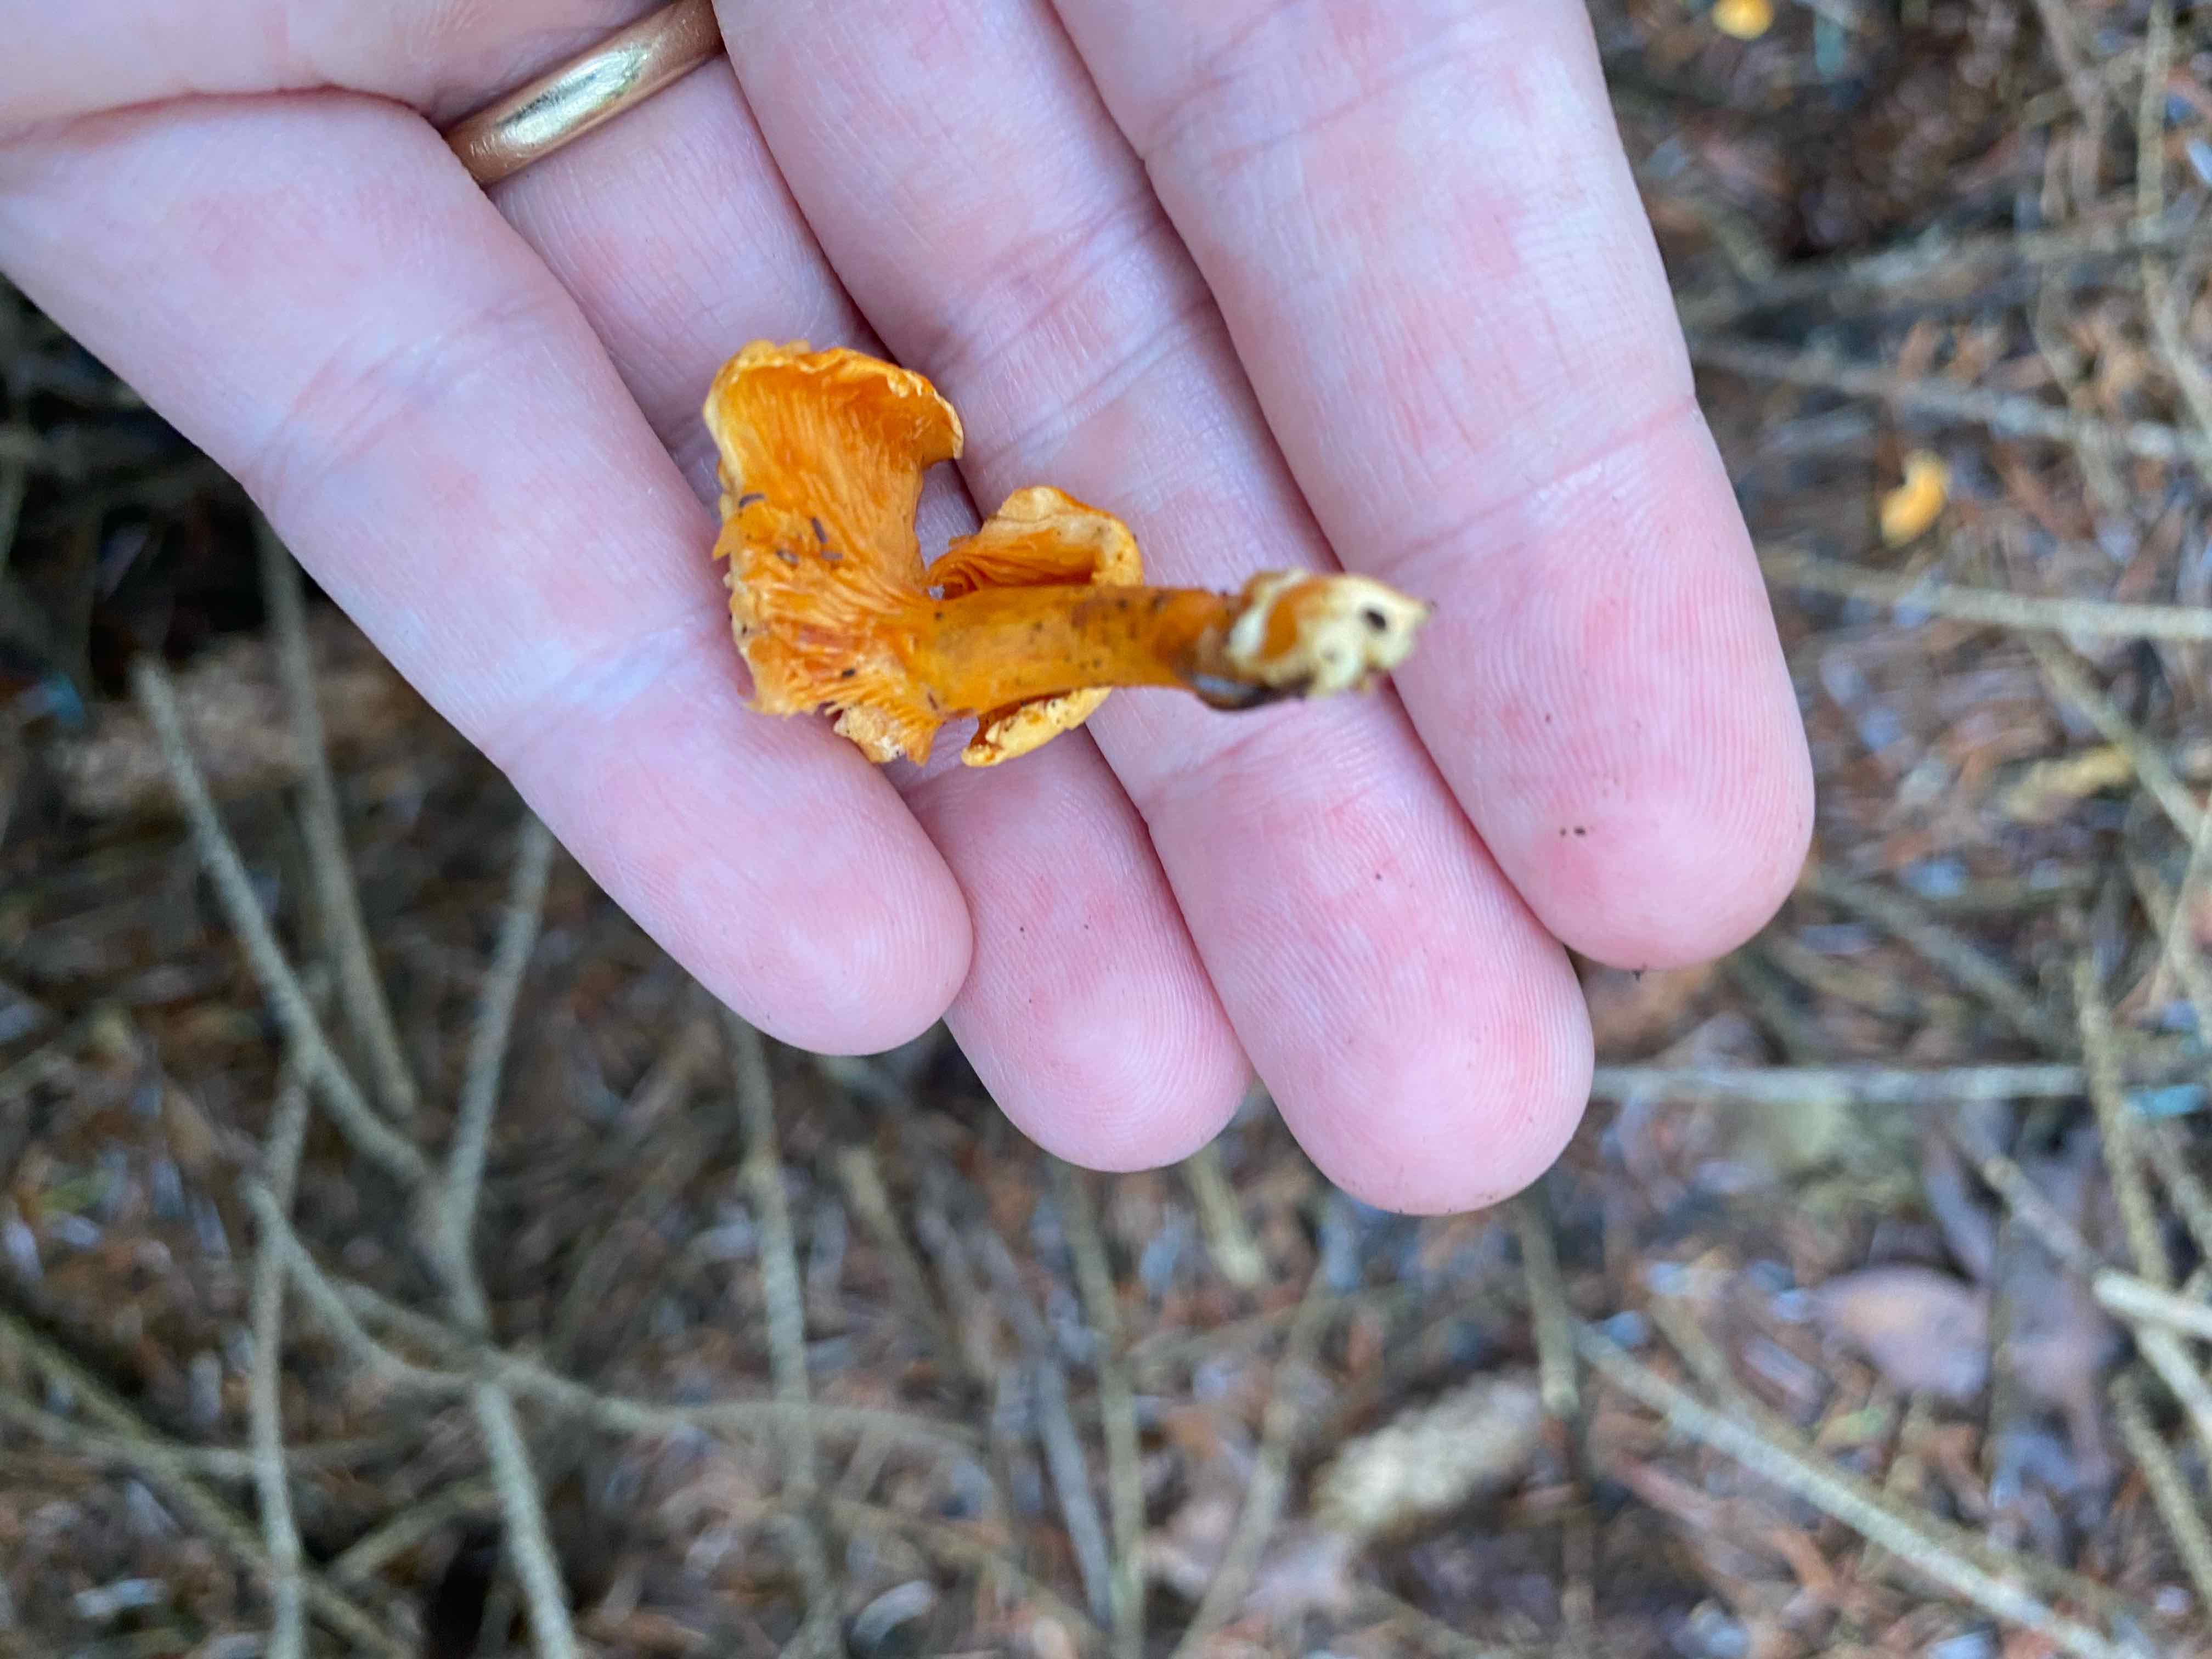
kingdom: Fungi
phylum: Basidiomycota
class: Agaricomycetes
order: Boletales
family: Hygrophoropsidaceae
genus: Hygrophoropsis
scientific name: Hygrophoropsis aurantiaca
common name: almindelig orangekantarel
